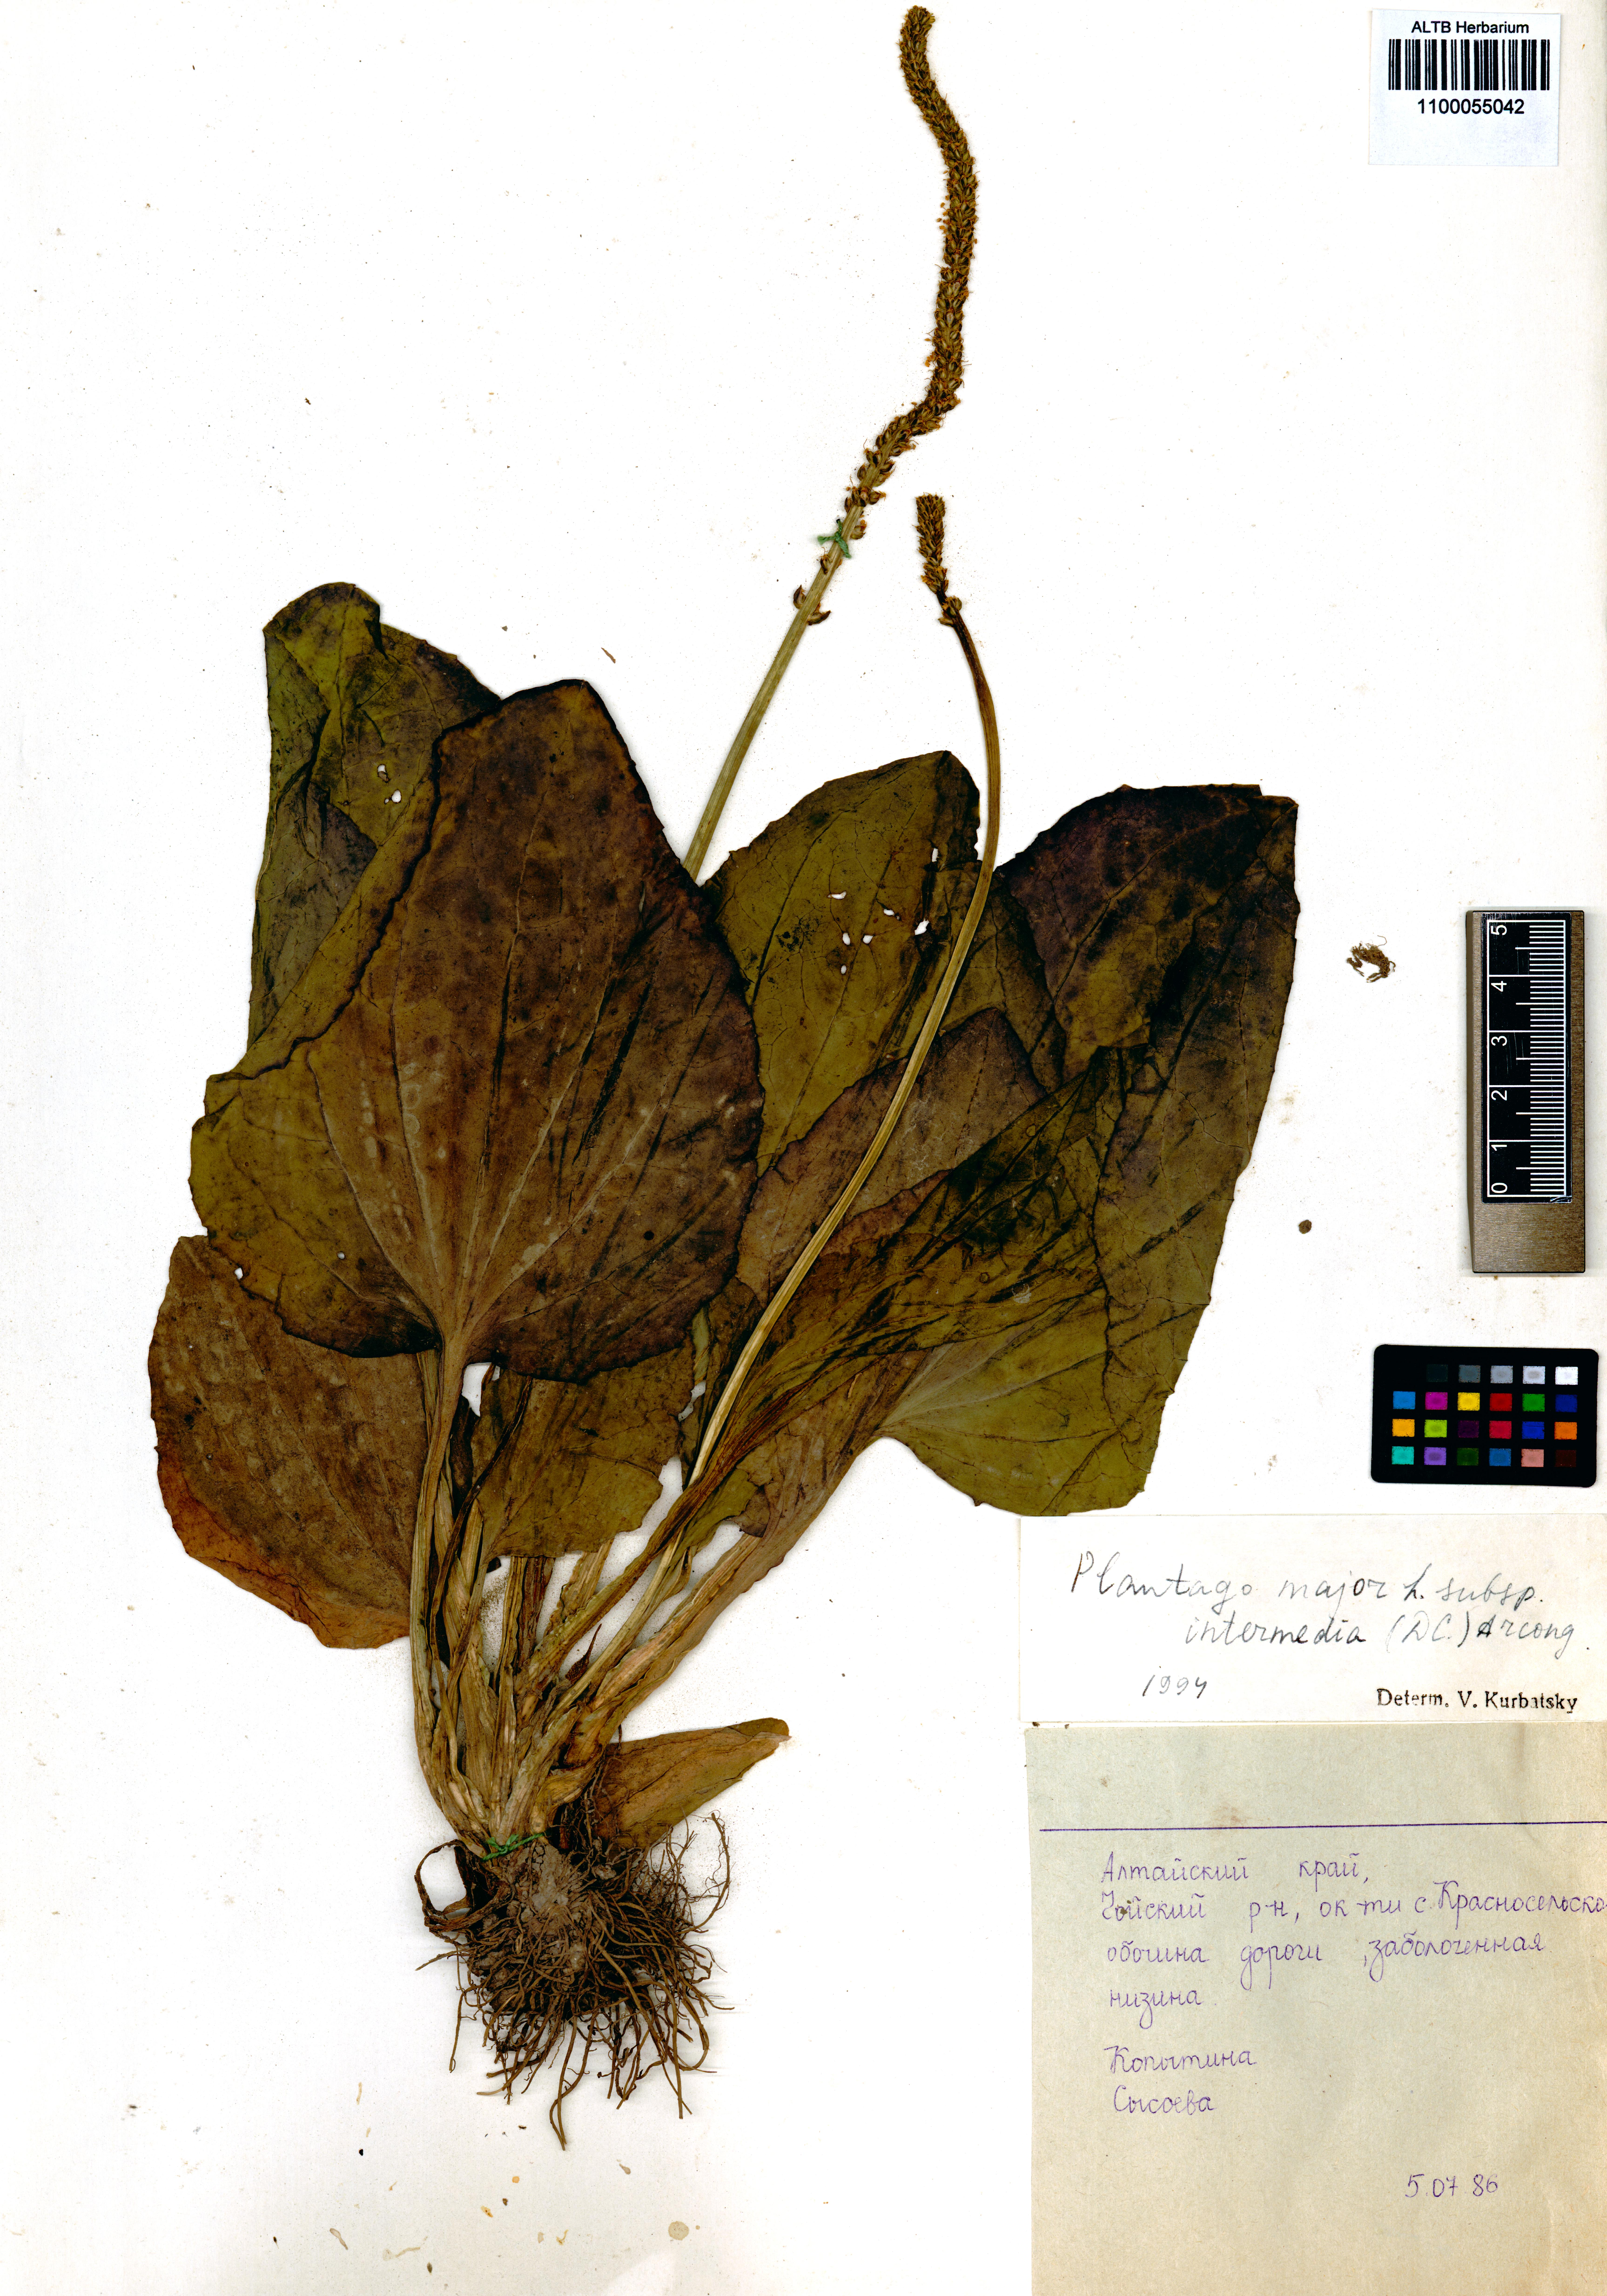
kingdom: Plantae
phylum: Tracheophyta
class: Magnoliopsida
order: Lamiales
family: Plantaginaceae
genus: Plantago
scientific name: Plantago major
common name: Common plantain
